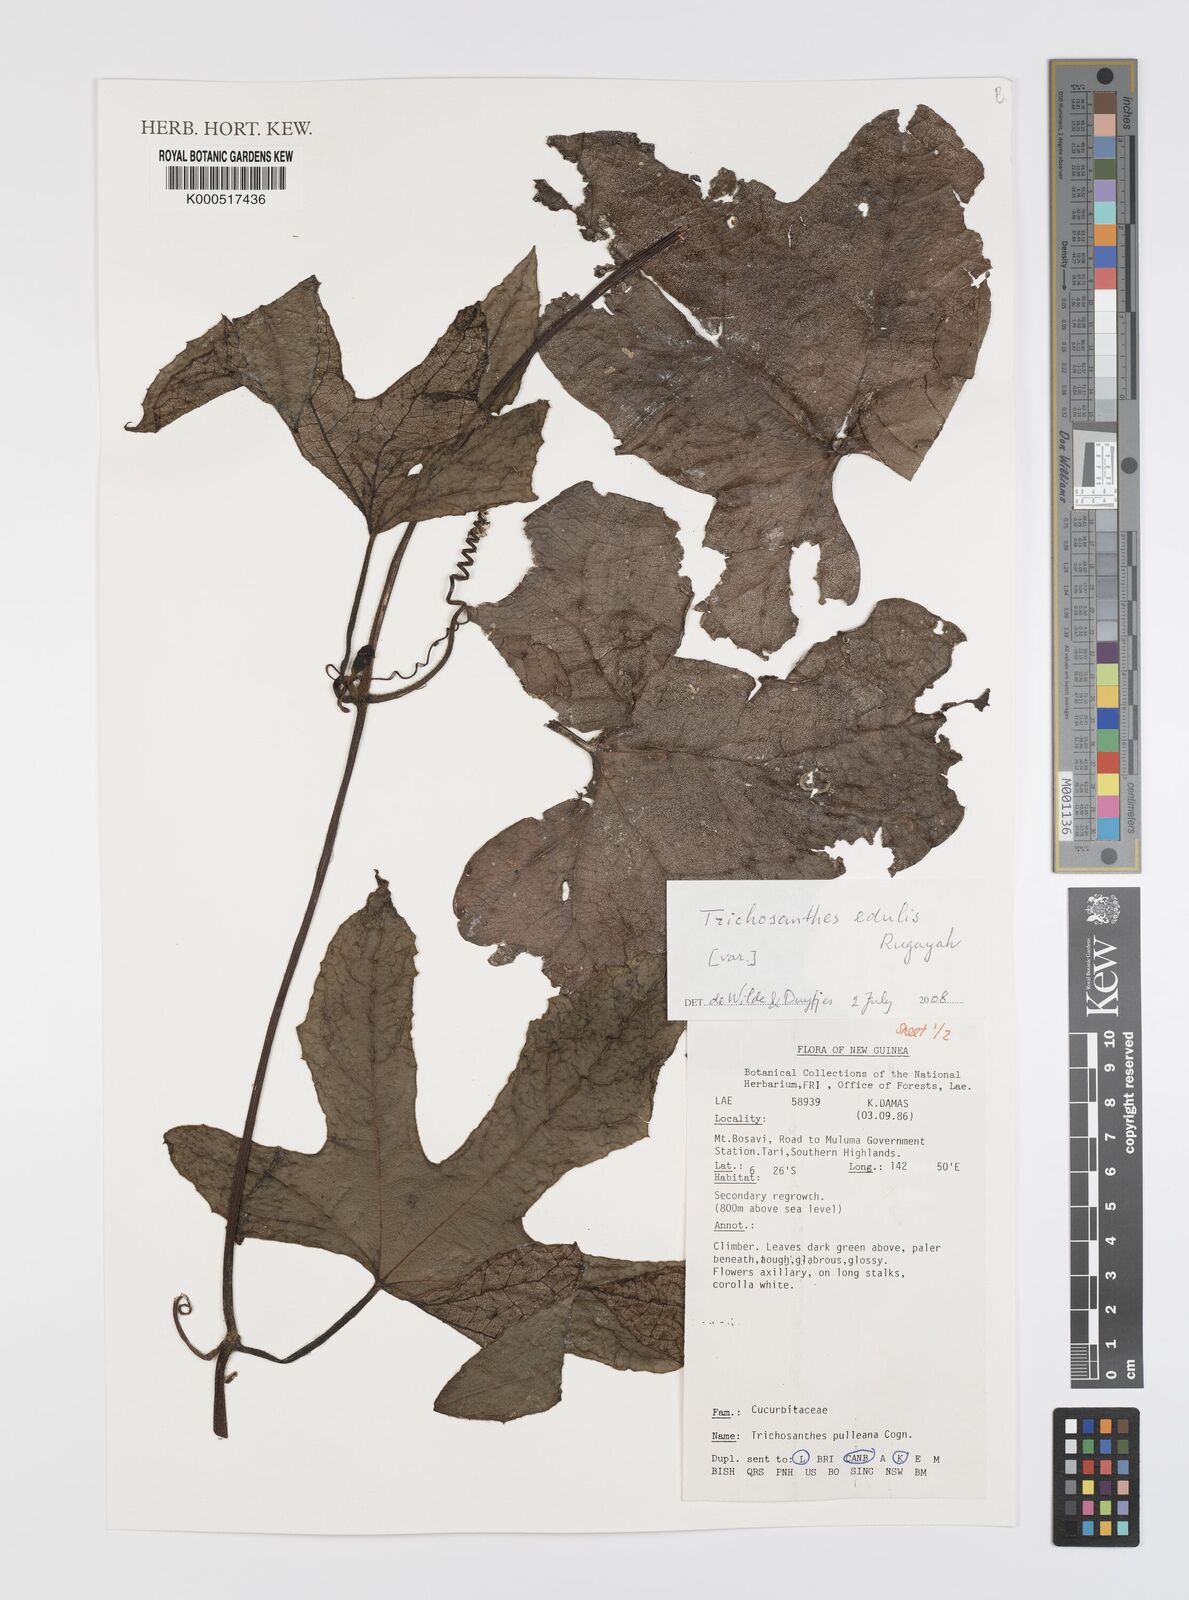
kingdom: Plantae
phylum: Tracheophyta
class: Magnoliopsida
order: Cucurbitales
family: Cucurbitaceae
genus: Trichosanthes
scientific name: Trichosanthes edulis
